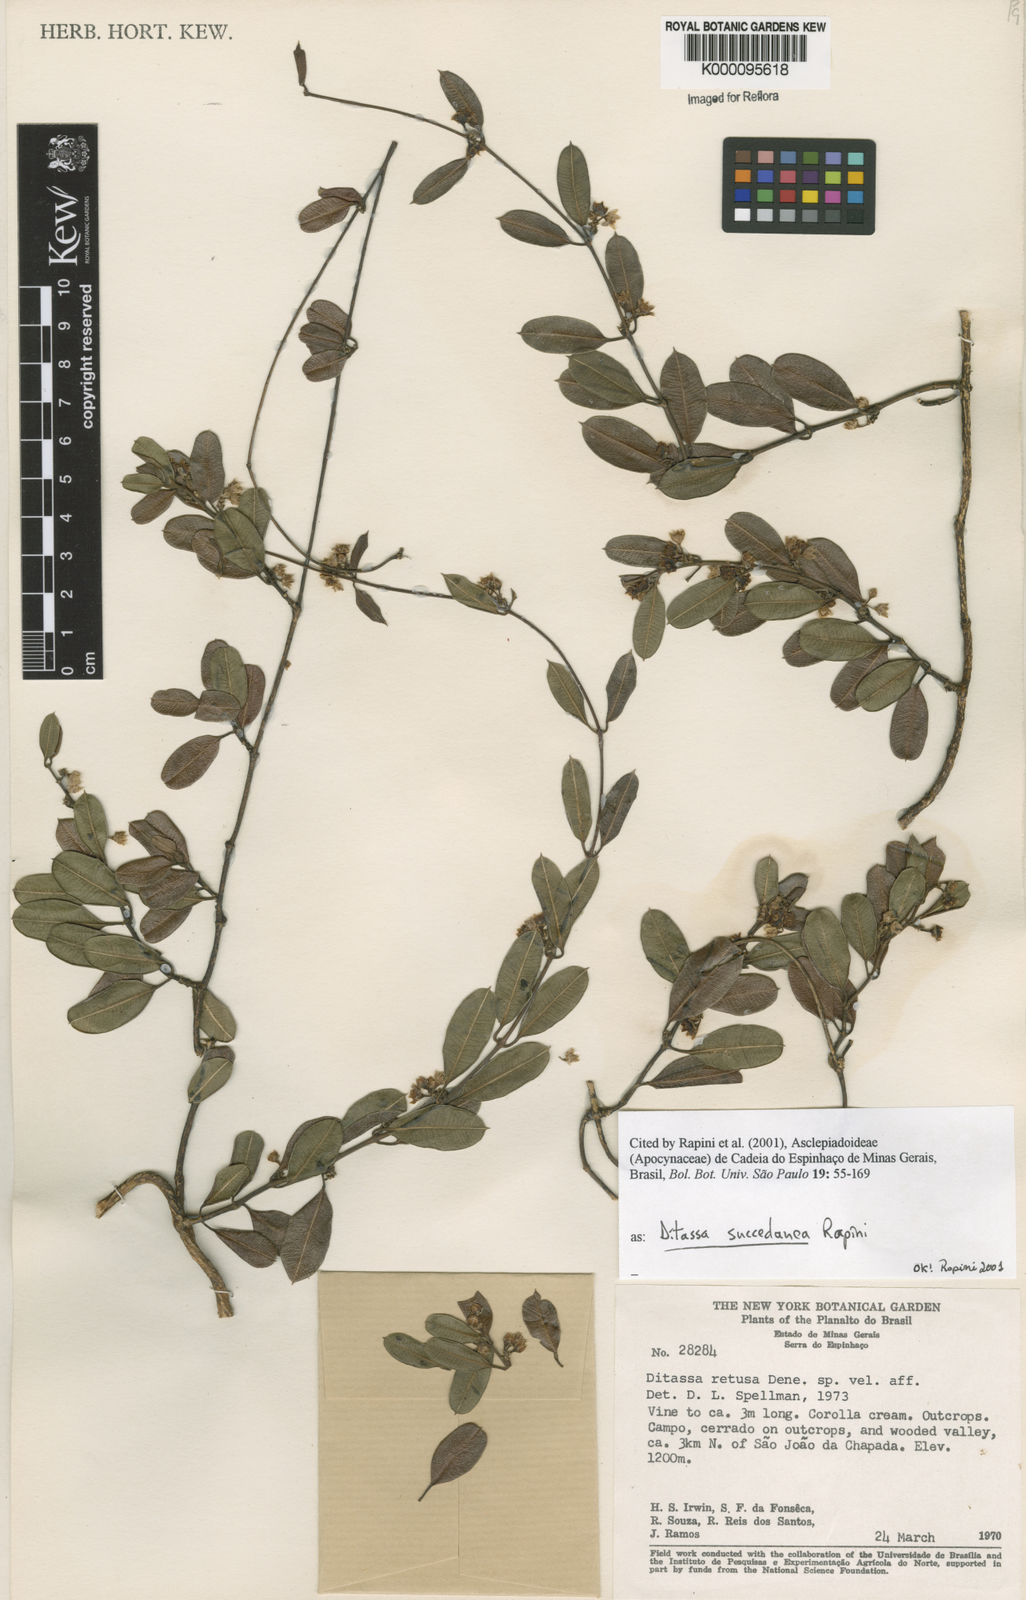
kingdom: Plantae
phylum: Tracheophyta
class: Magnoliopsida
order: Gentianales
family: Apocynaceae
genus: Ditassa
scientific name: Ditassa succedanea
